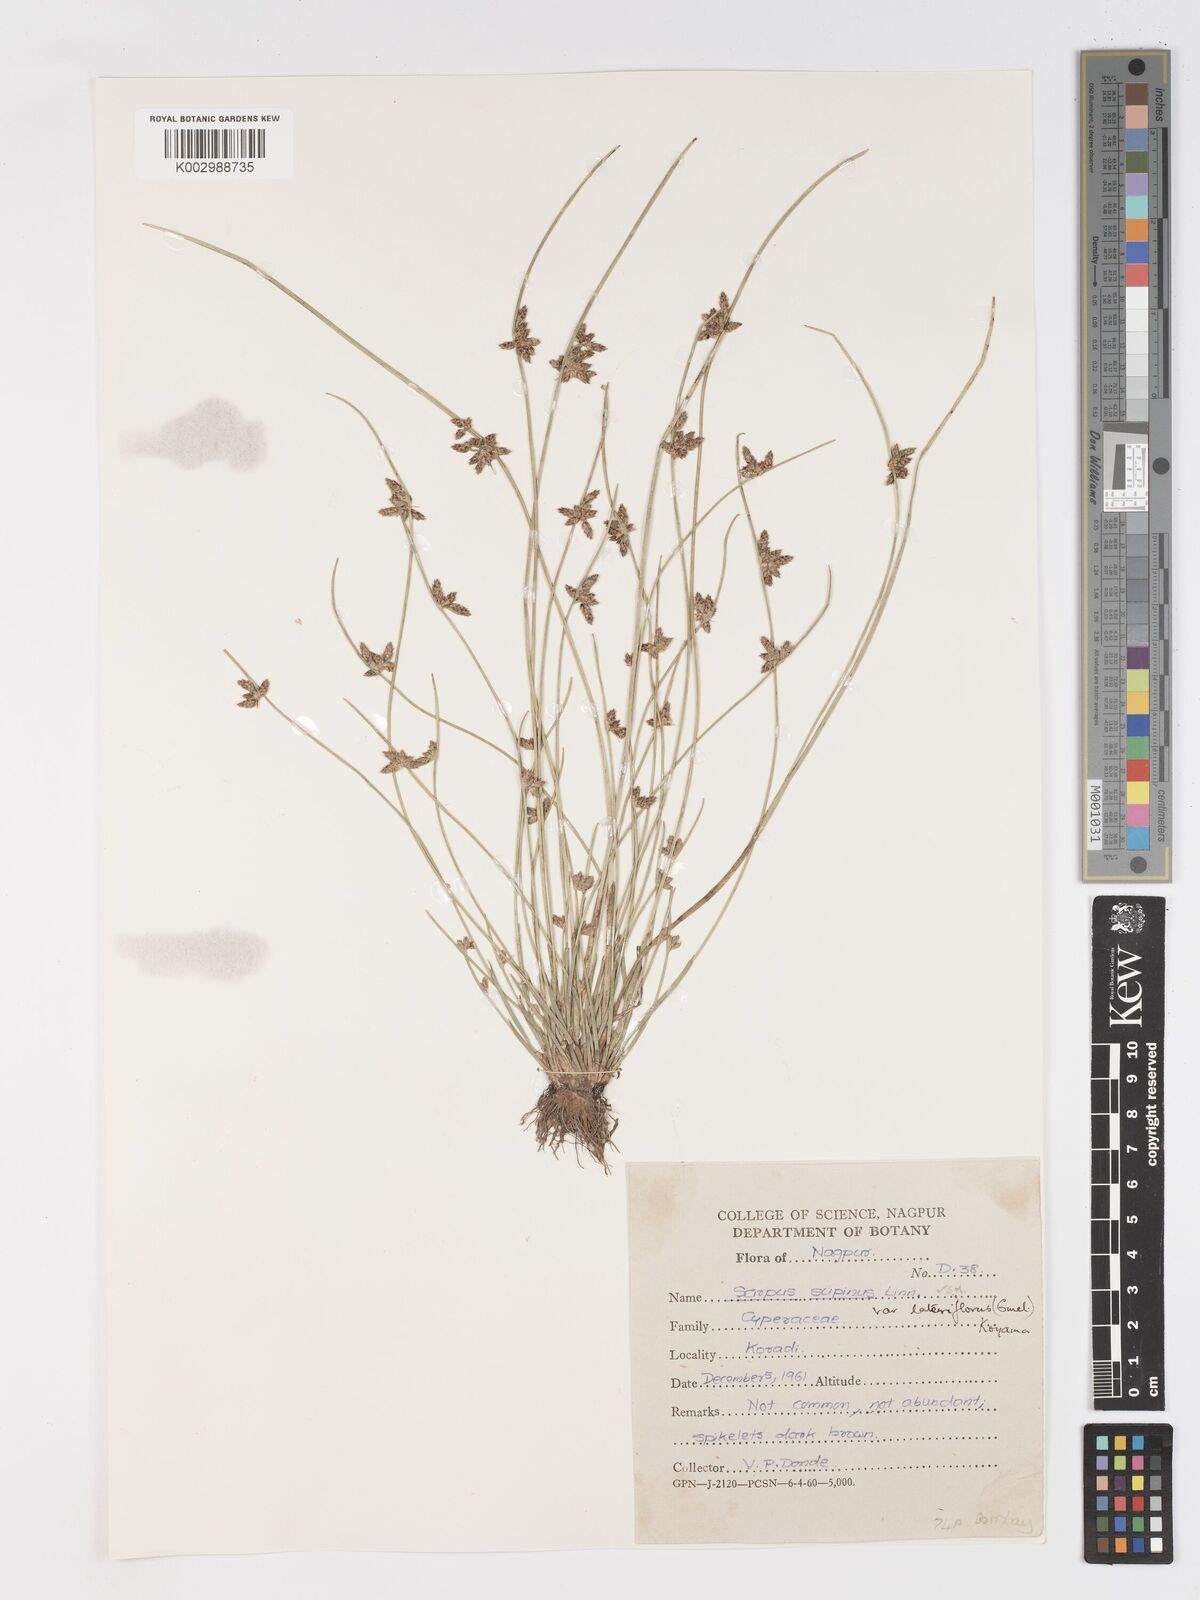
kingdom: Plantae
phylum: Tracheophyta
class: Liliopsida
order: Poales
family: Cyperaceae
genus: Schoenoplectiella
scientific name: Schoenoplectiella lateriflora
